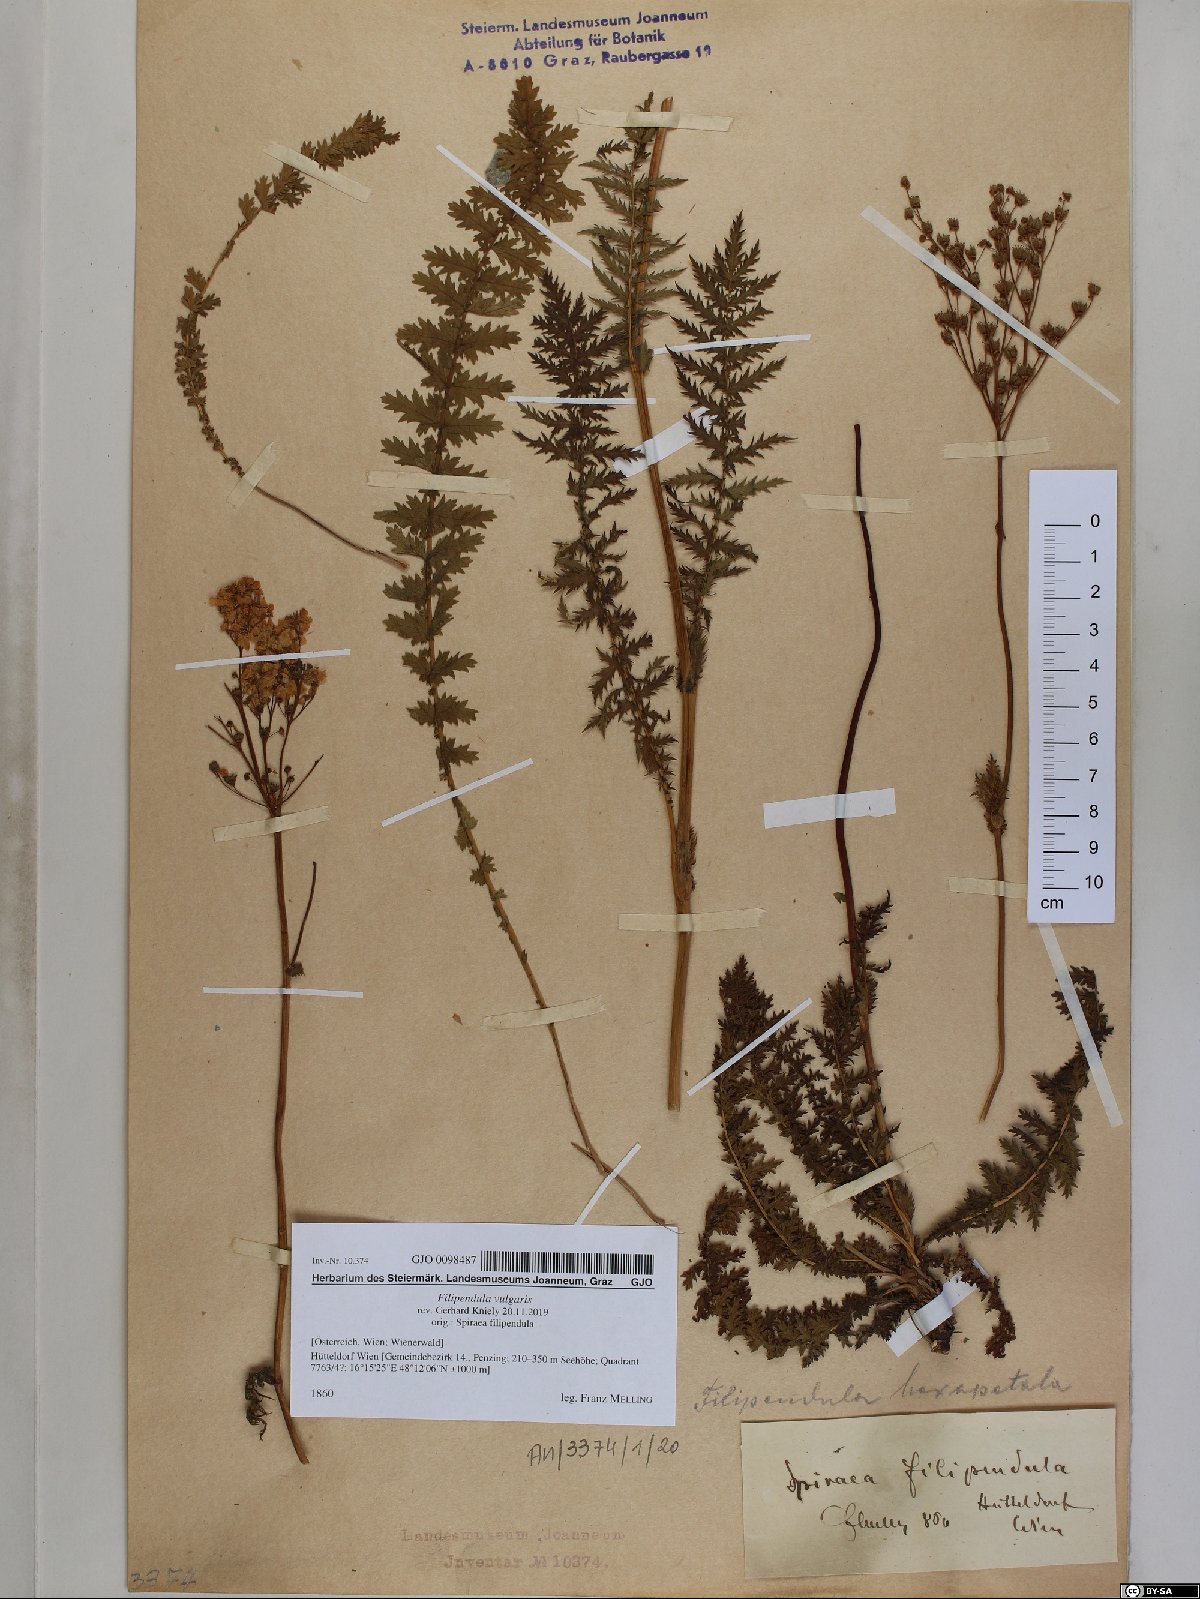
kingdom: Plantae
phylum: Tracheophyta
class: Magnoliopsida
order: Rosales
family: Rosaceae
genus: Filipendula
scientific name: Filipendula vulgaris
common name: Dropwort
